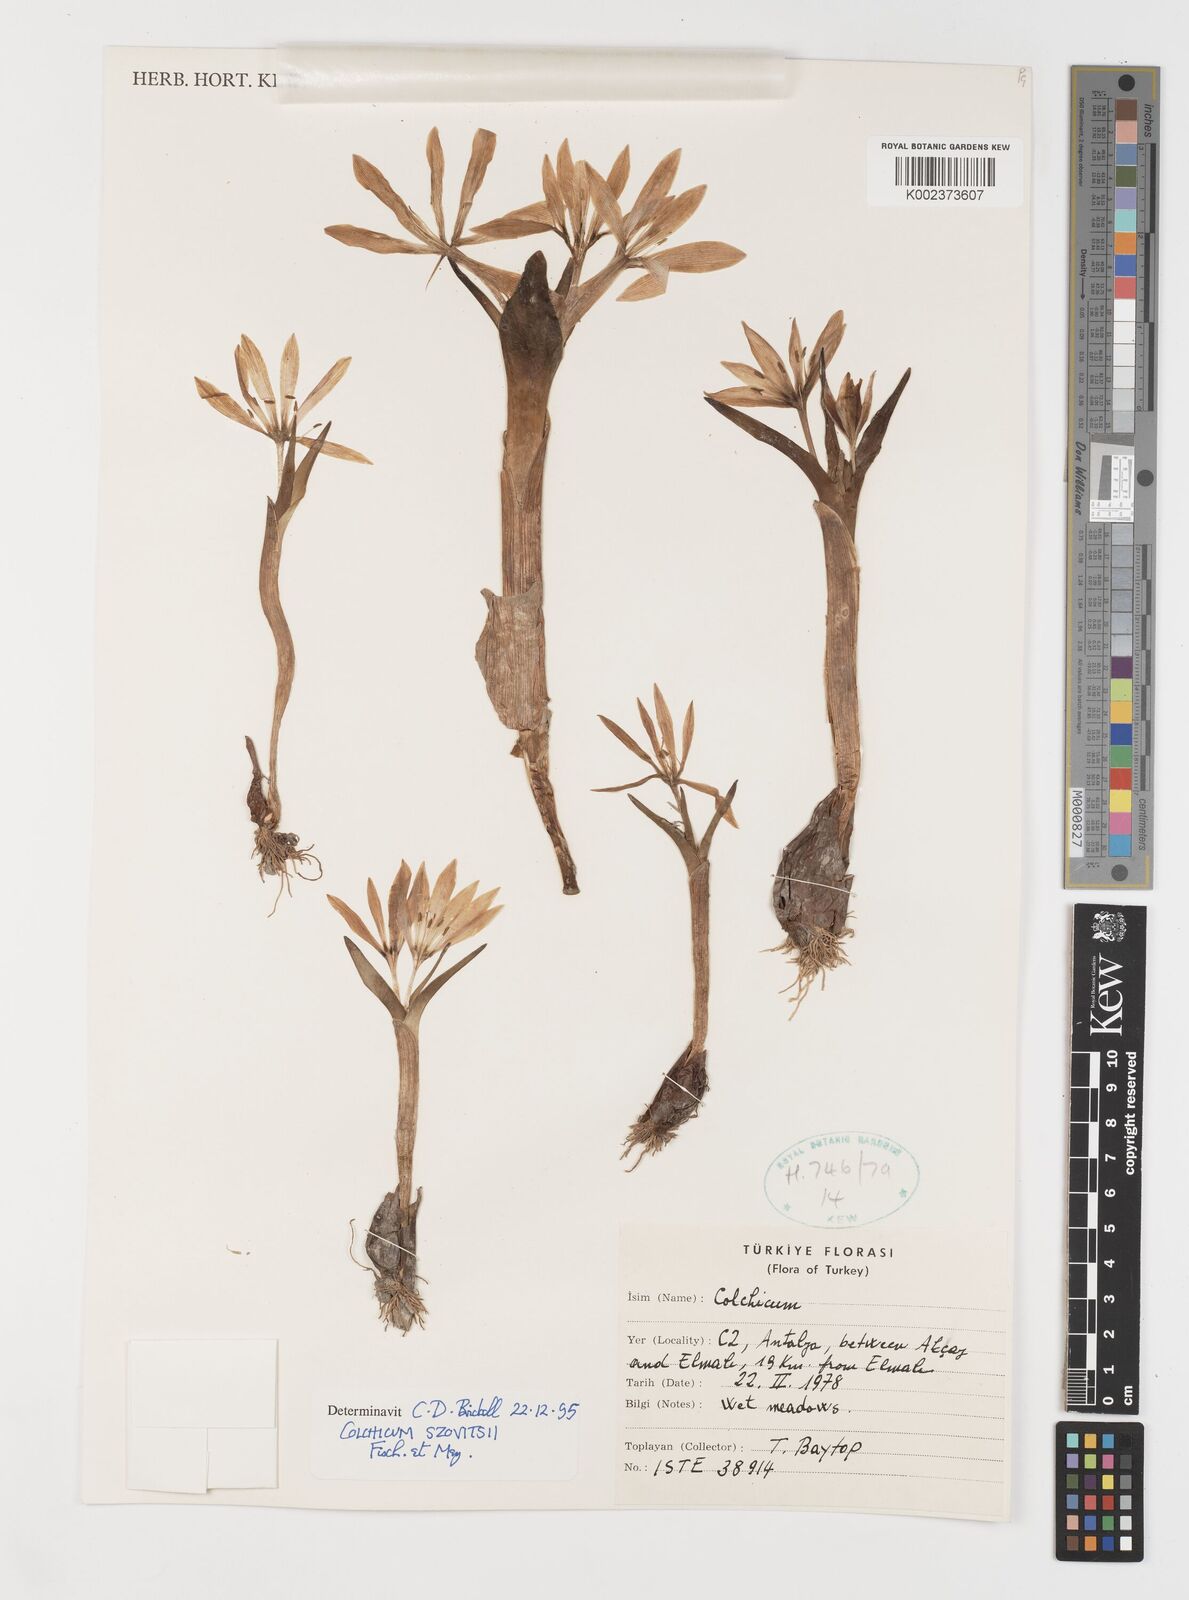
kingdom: Plantae
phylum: Tracheophyta
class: Liliopsida
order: Liliales
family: Colchicaceae
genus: Colchicum
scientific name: Colchicum szovitsii
